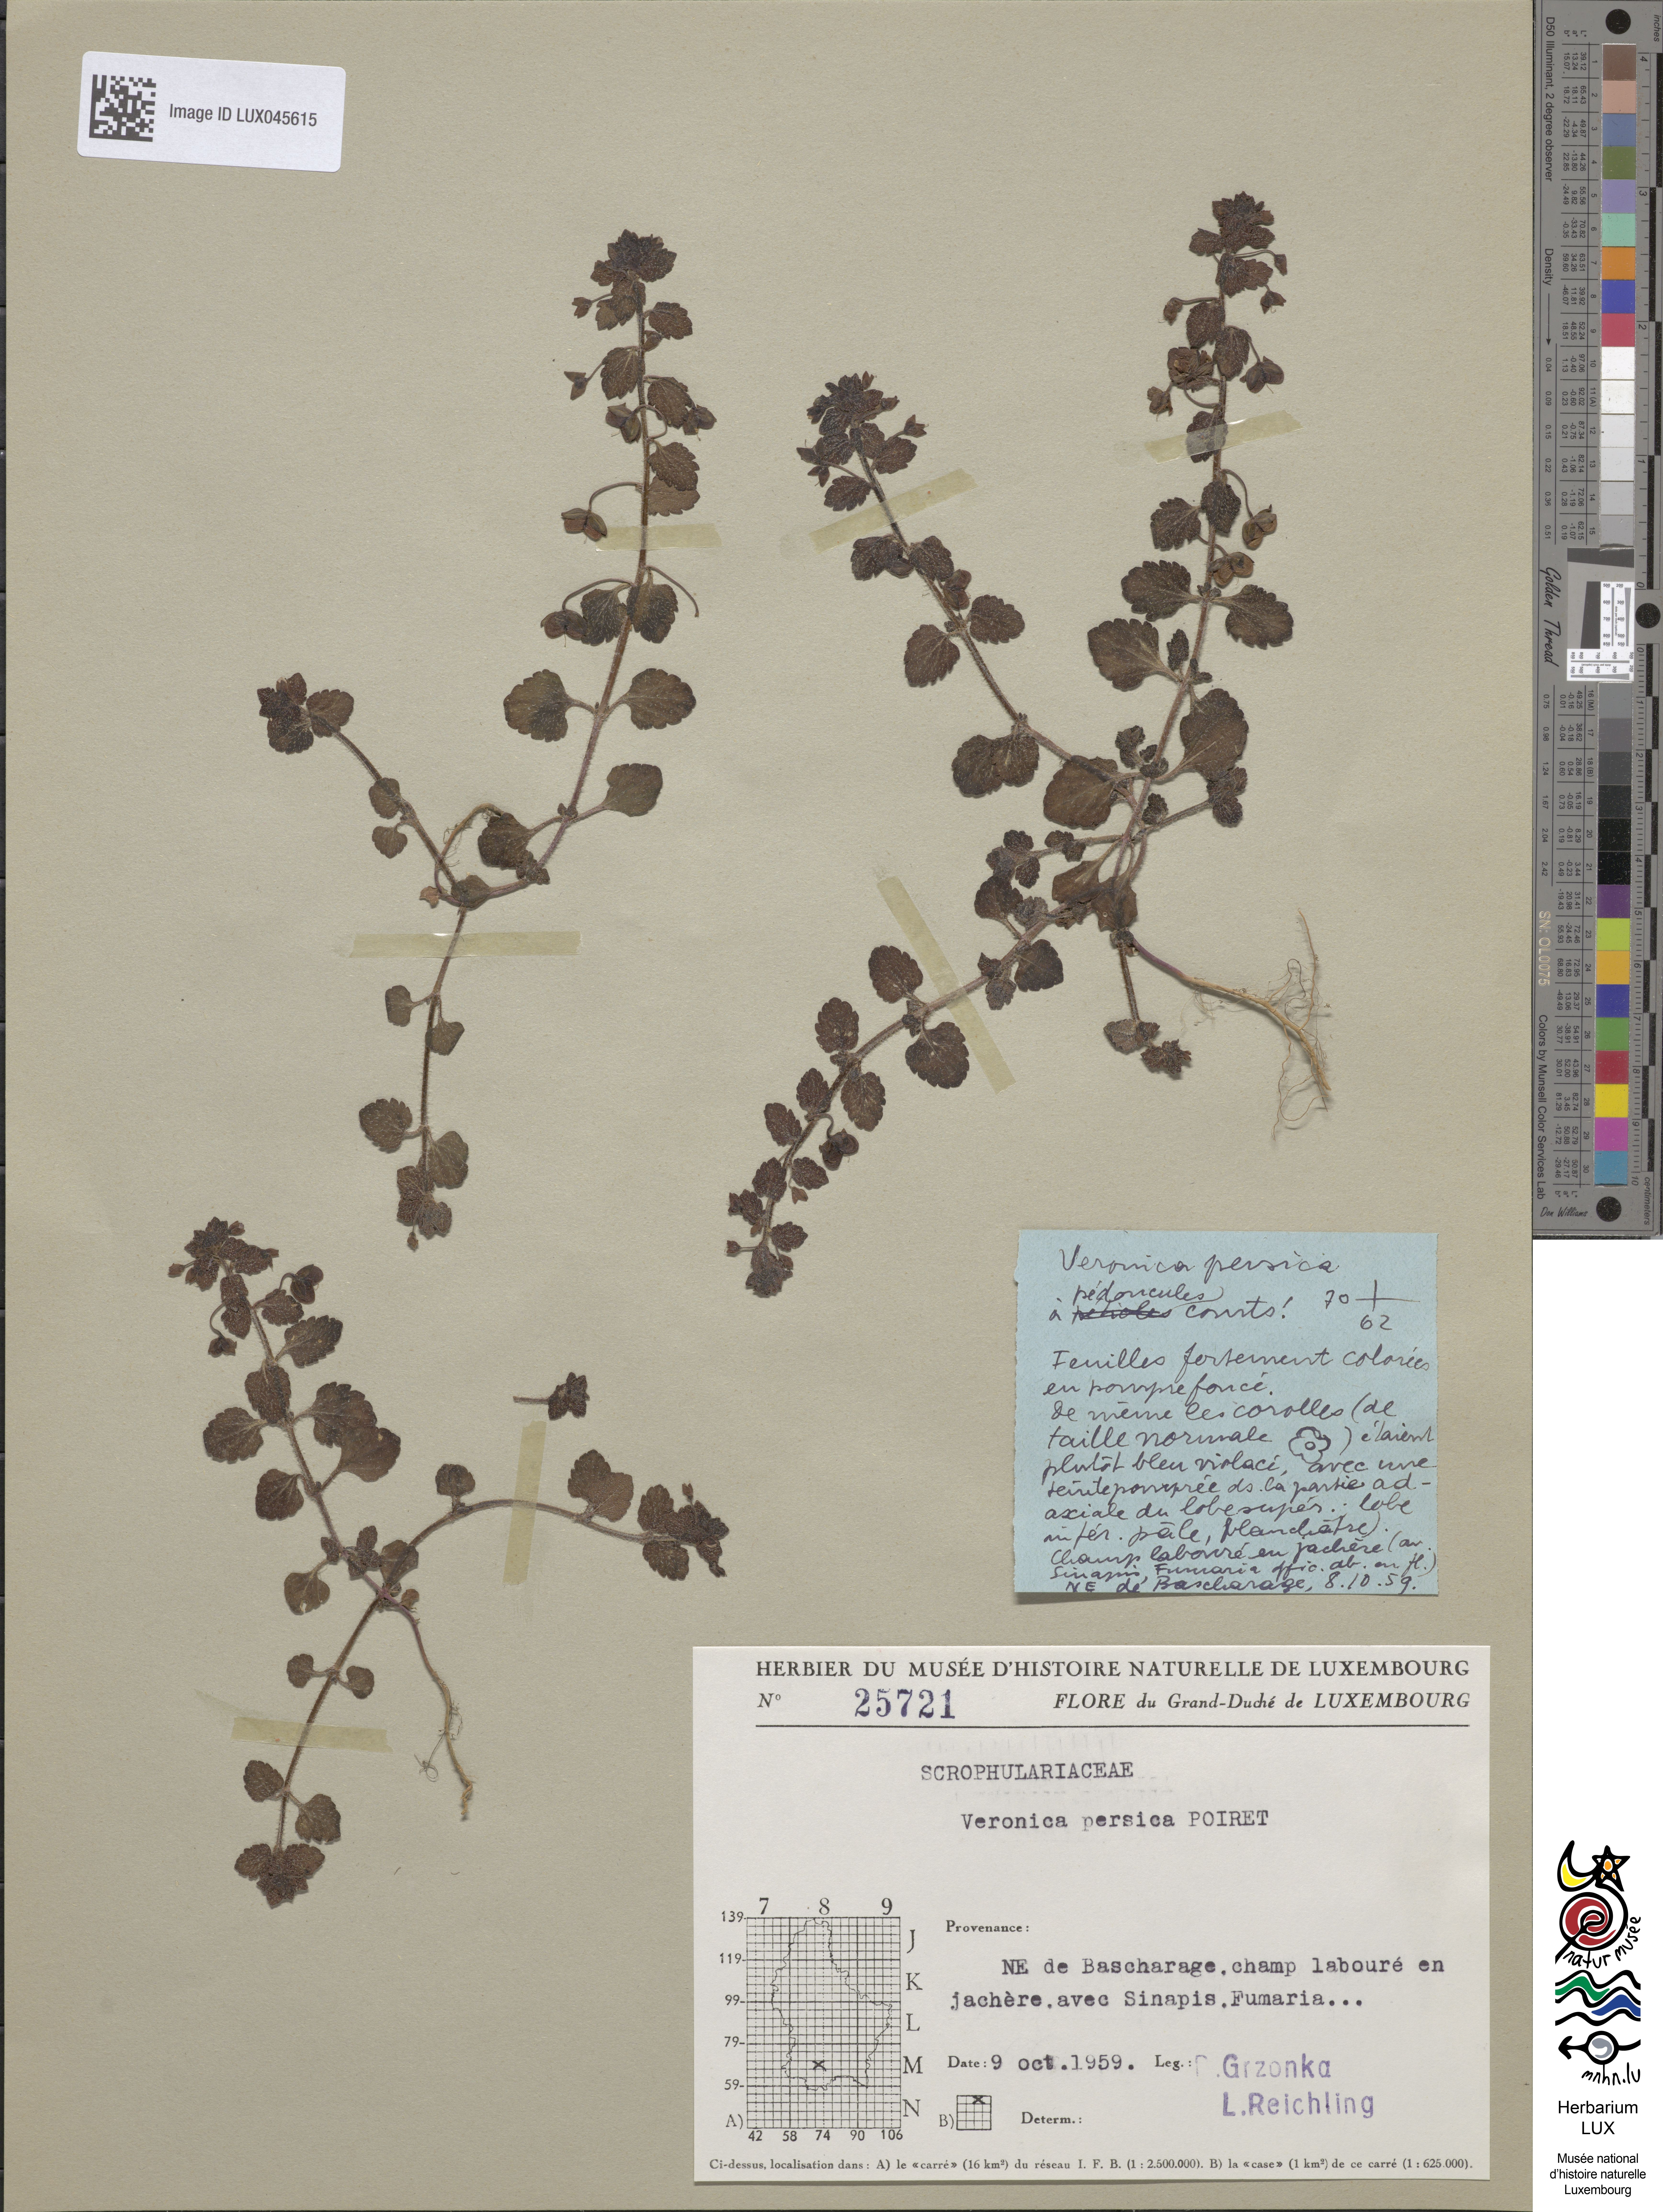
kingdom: Plantae
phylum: Tracheophyta
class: Magnoliopsida
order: Lamiales
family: Plantaginaceae
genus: Veronica
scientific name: Veronica persica
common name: Common field-speedwell
